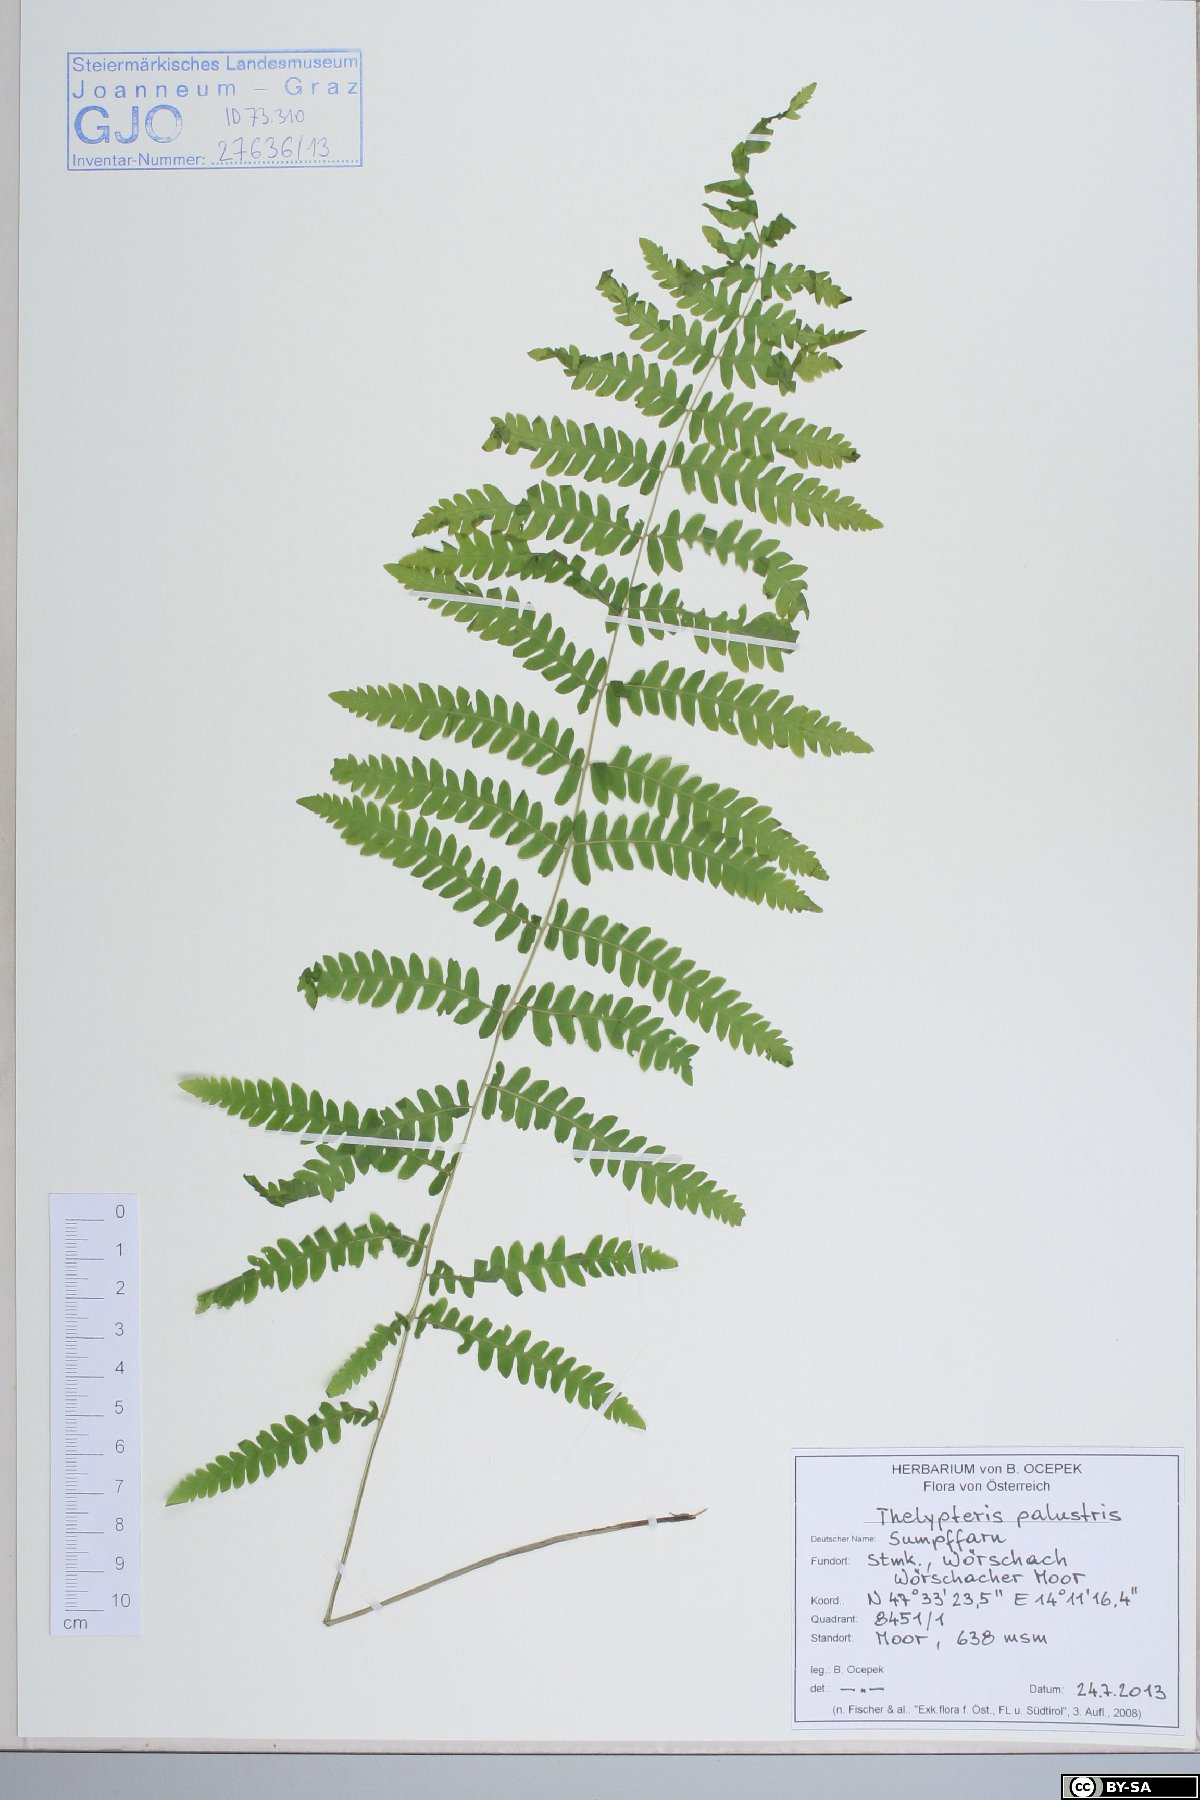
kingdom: Plantae
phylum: Tracheophyta
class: Polypodiopsida
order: Polypodiales
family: Thelypteridaceae
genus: Thelypteris
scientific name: Thelypteris palustris
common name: Marsh fern
